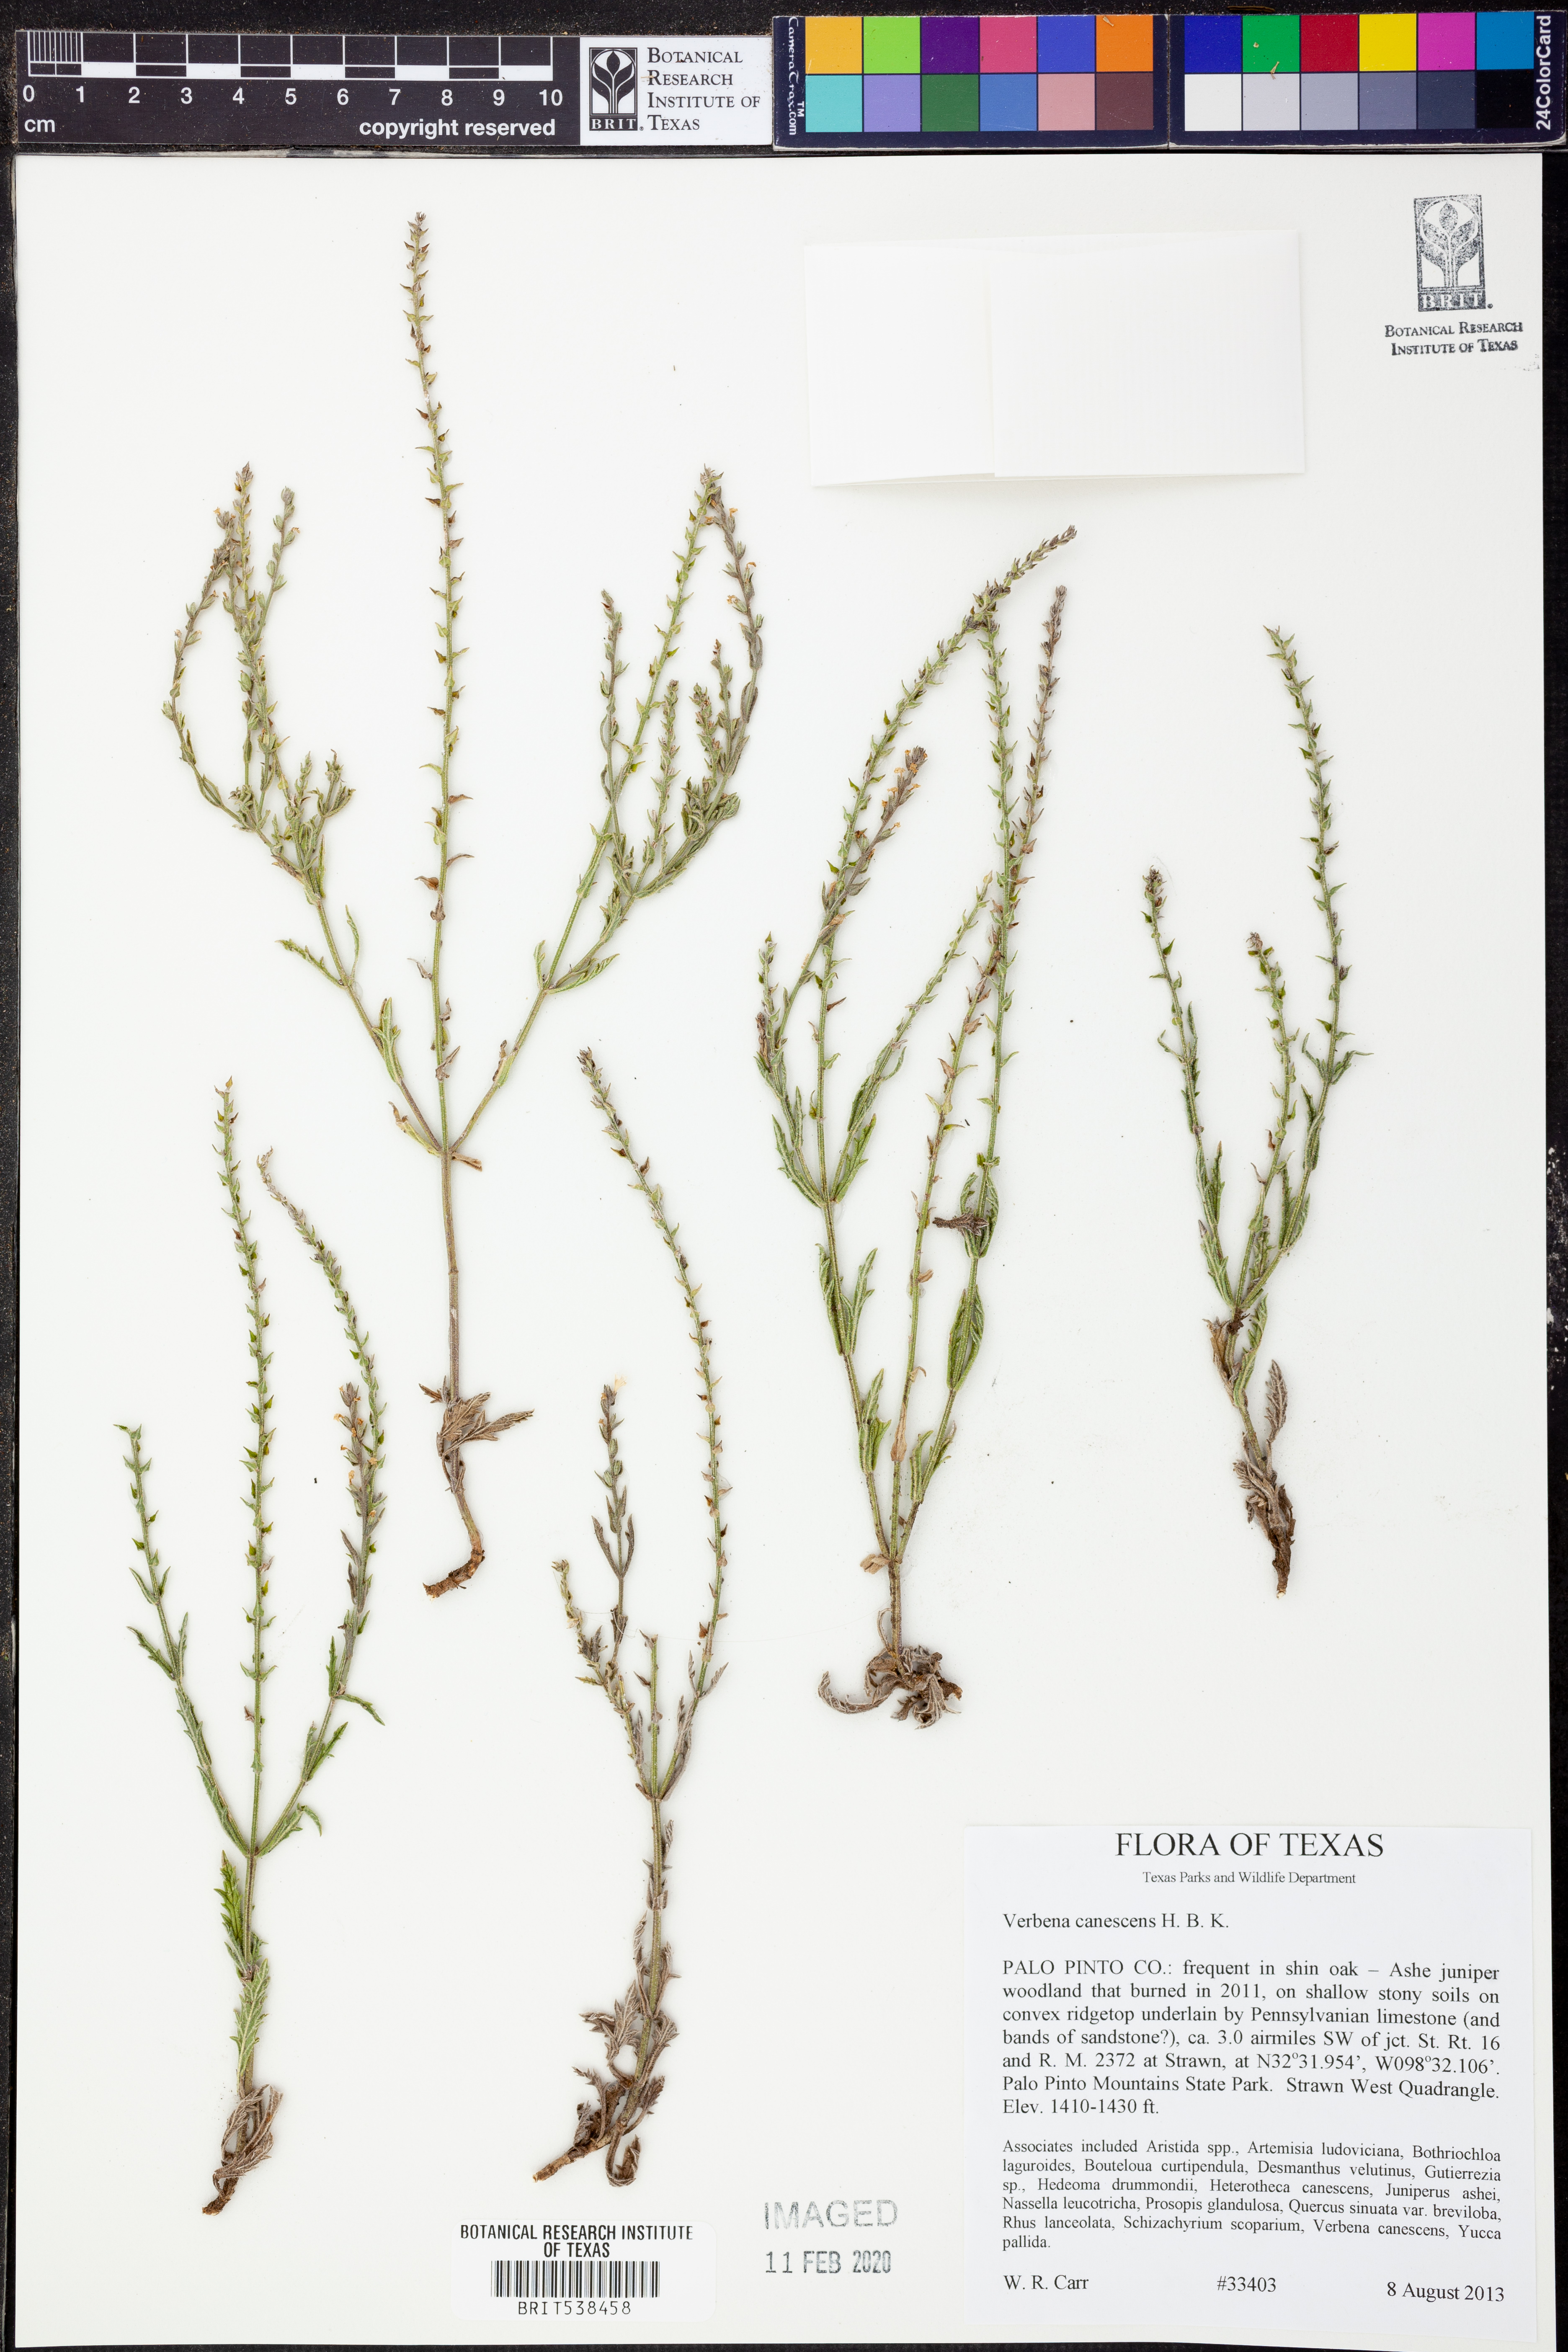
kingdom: Plantae
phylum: Tracheophyta
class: Magnoliopsida
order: Lamiales
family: Verbenaceae
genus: Verbena
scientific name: Verbena canescens
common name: Gray vervain
